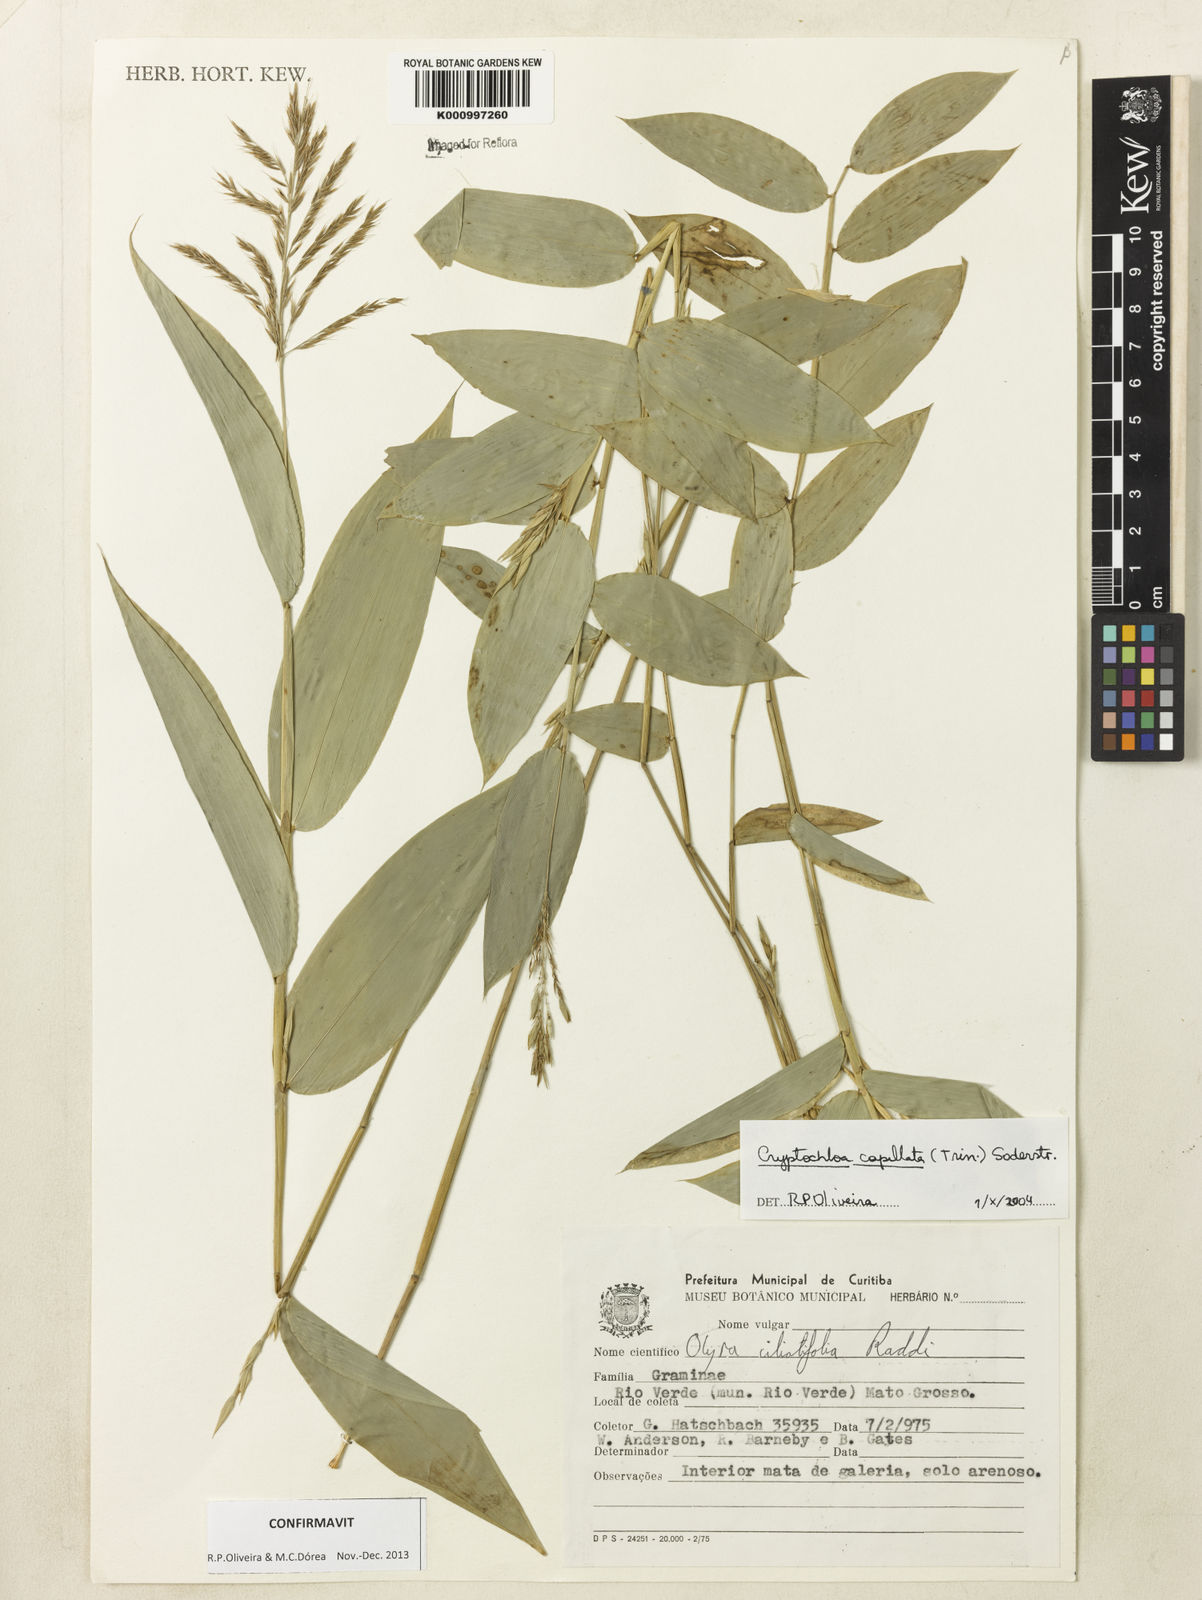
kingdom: Plantae
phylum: Tracheophyta
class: Liliopsida
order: Poales
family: Poaceae
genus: Cryptochloa
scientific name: Cryptochloa capillata
